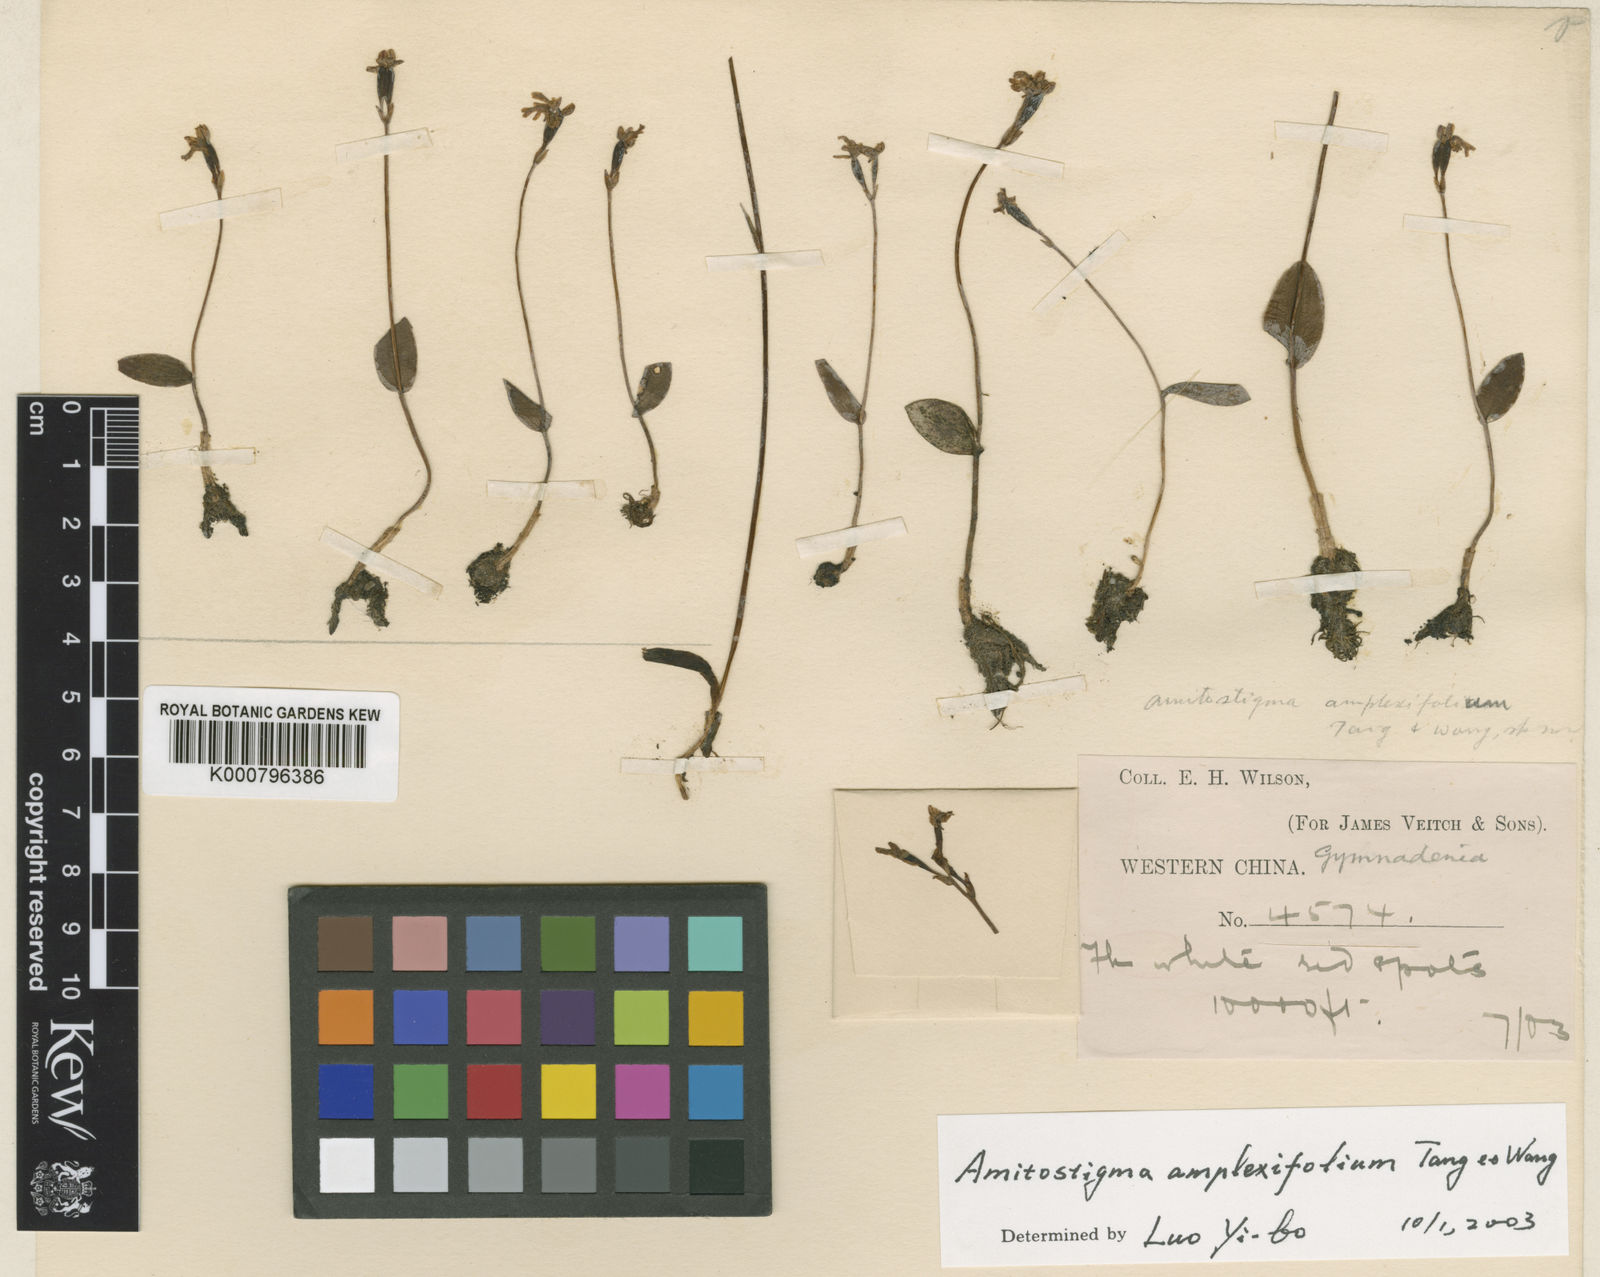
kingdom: Plantae
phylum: Tracheophyta
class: Liliopsida
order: Asparagales
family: Orchidaceae
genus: Hemipilia
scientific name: Hemipilia amplexifolia
